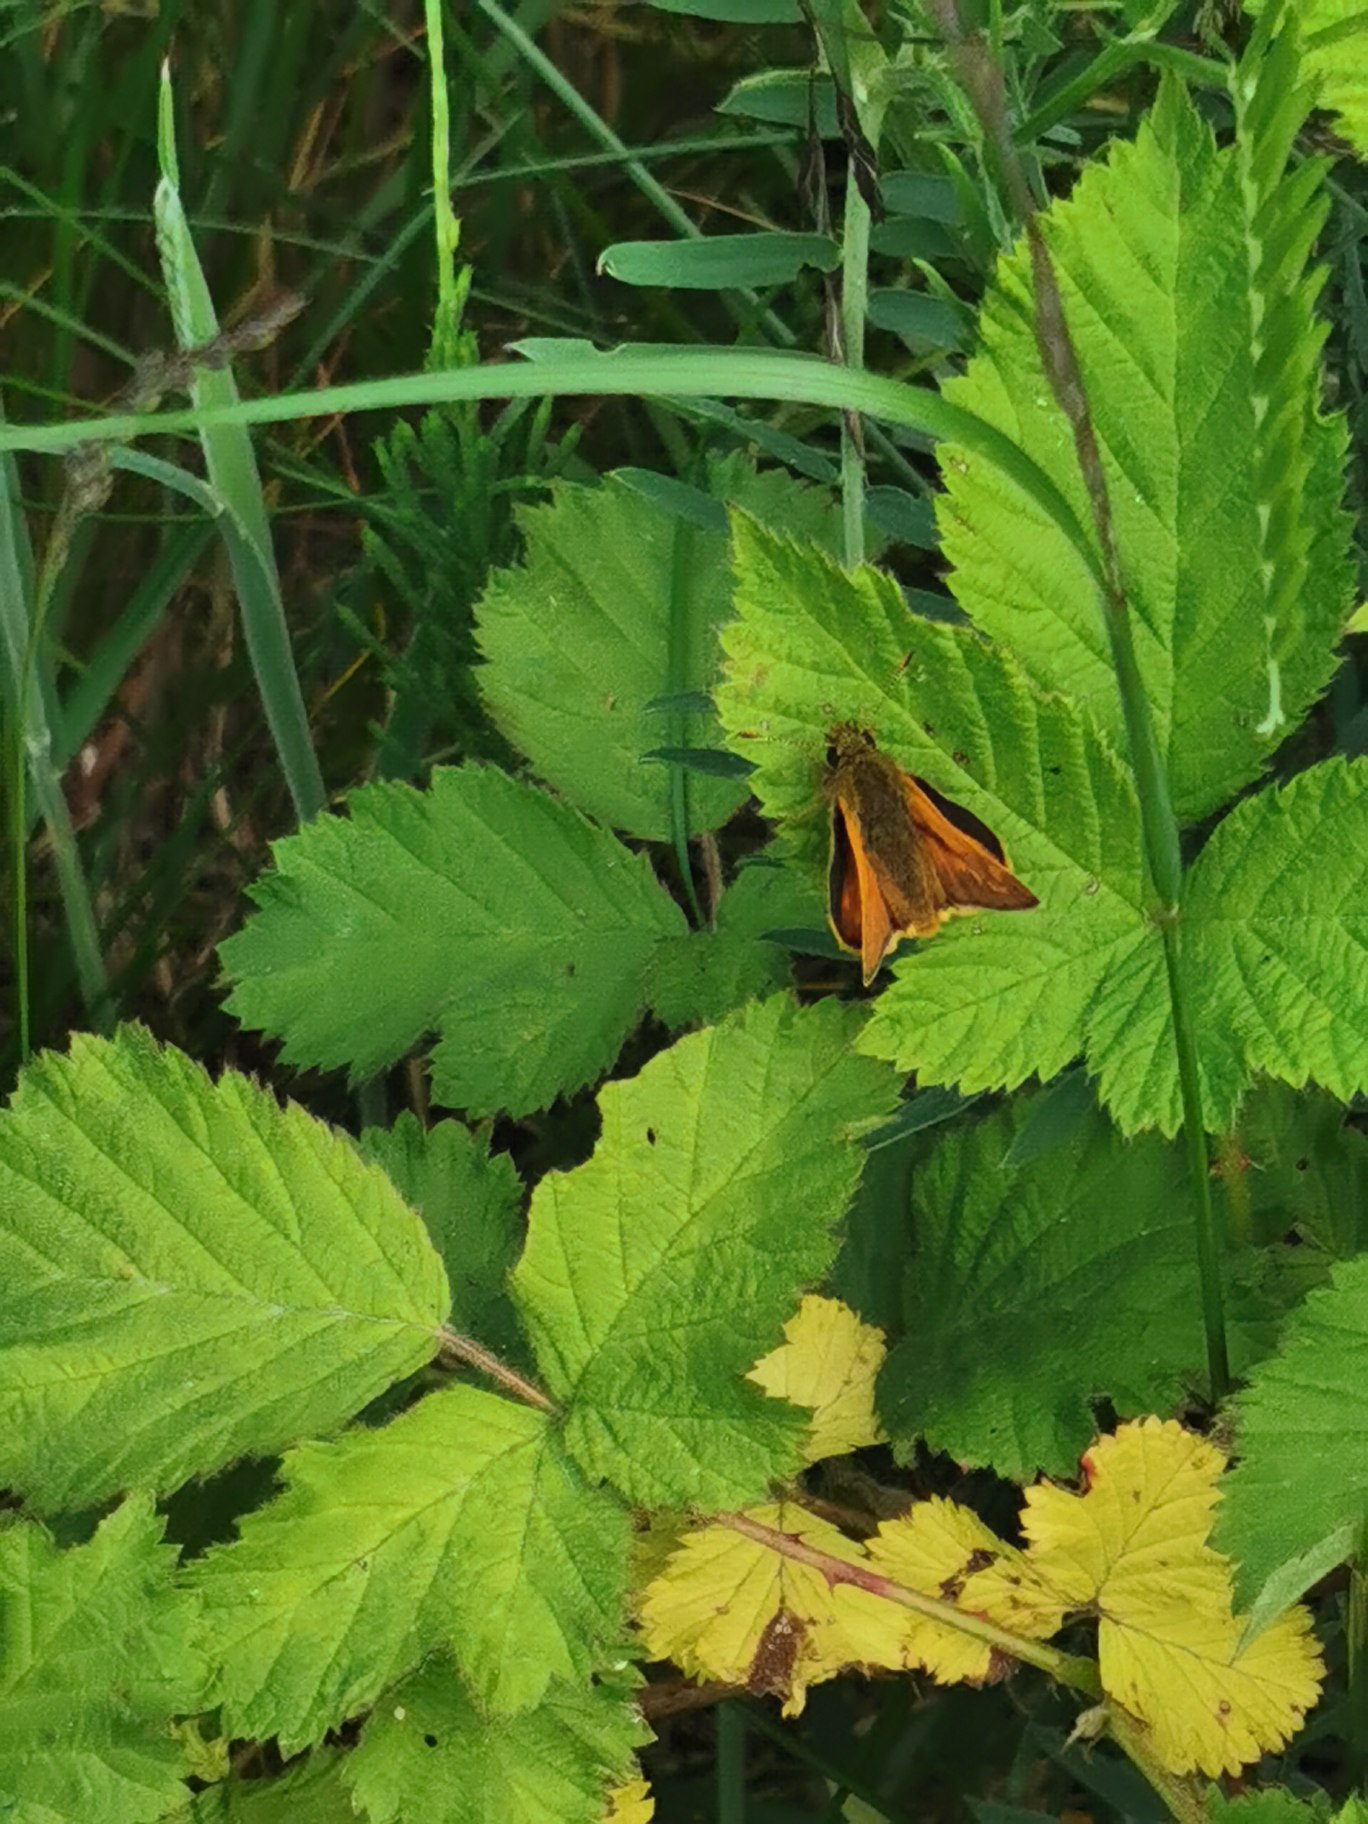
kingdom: Animalia
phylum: Arthropoda
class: Insecta
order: Lepidoptera
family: Hesperiidae
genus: Ochlodes
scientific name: Ochlodes venata
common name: Stor bredpande
